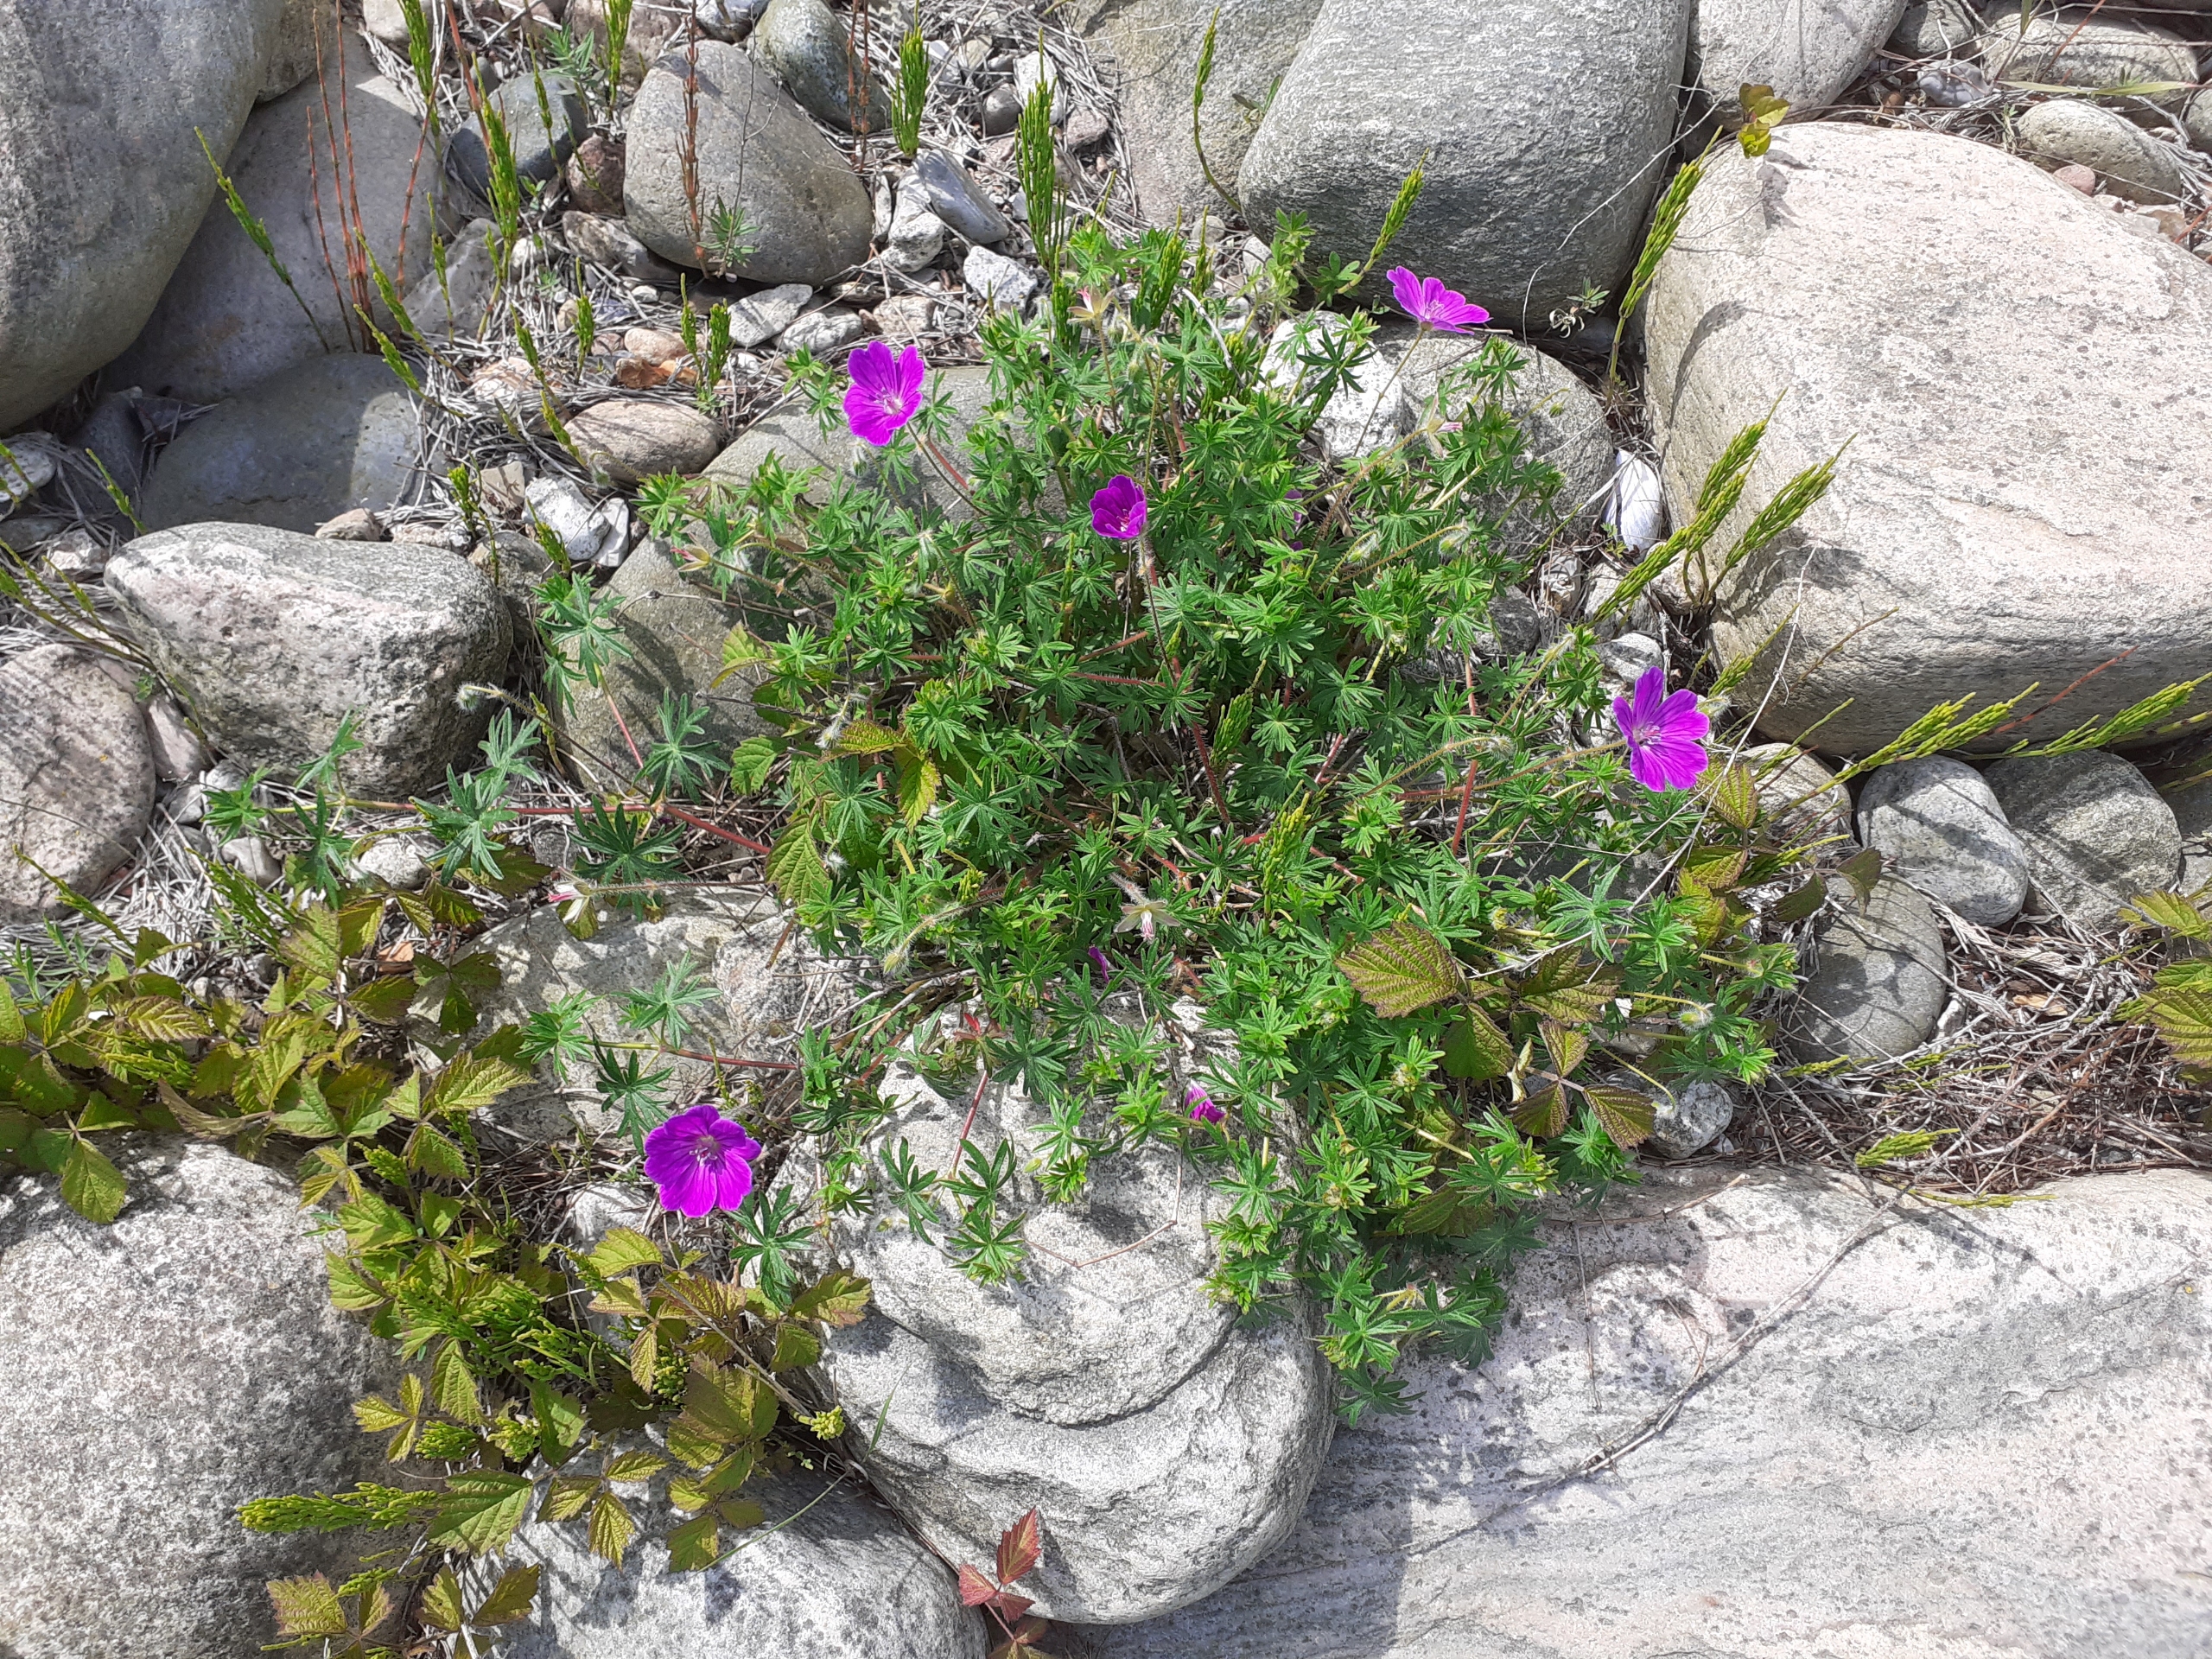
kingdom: Plantae
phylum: Tracheophyta
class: Magnoliopsida
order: Geraniales
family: Geraniaceae
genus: Geranium
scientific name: Geranium sanguineum
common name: Blodrød storkenæb
